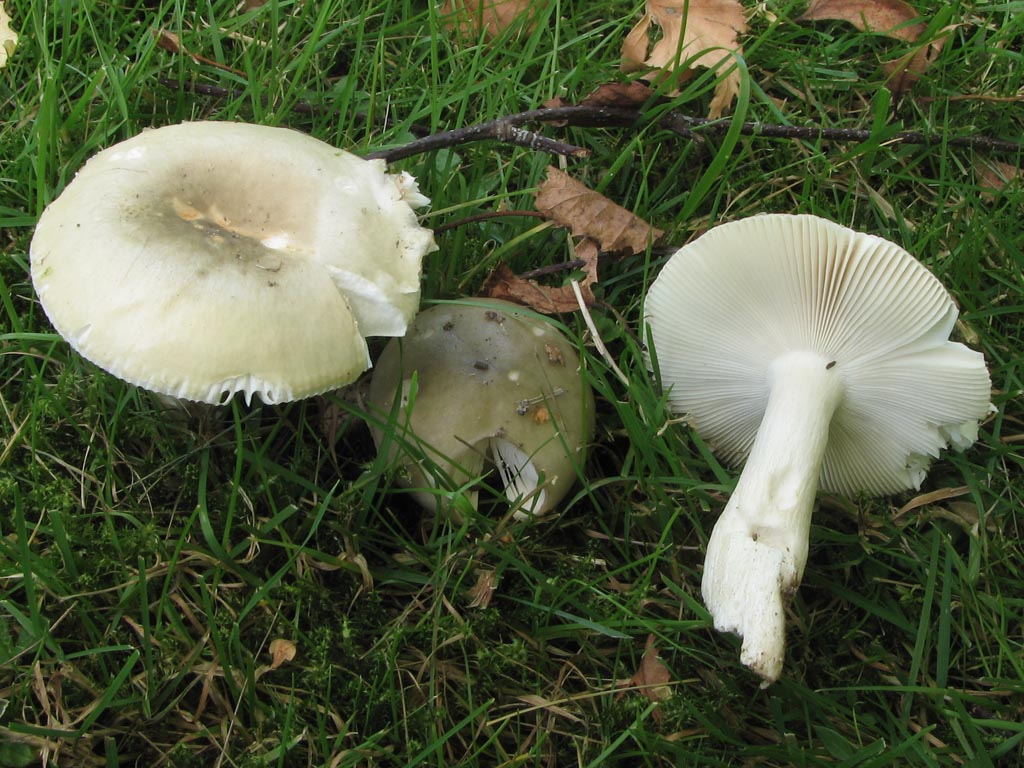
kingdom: Fungi
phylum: Basidiomycota
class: Agaricomycetes
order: Russulales
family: Russulaceae
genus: Russula
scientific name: Russula aeruginea
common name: græsgrøn skørhat
